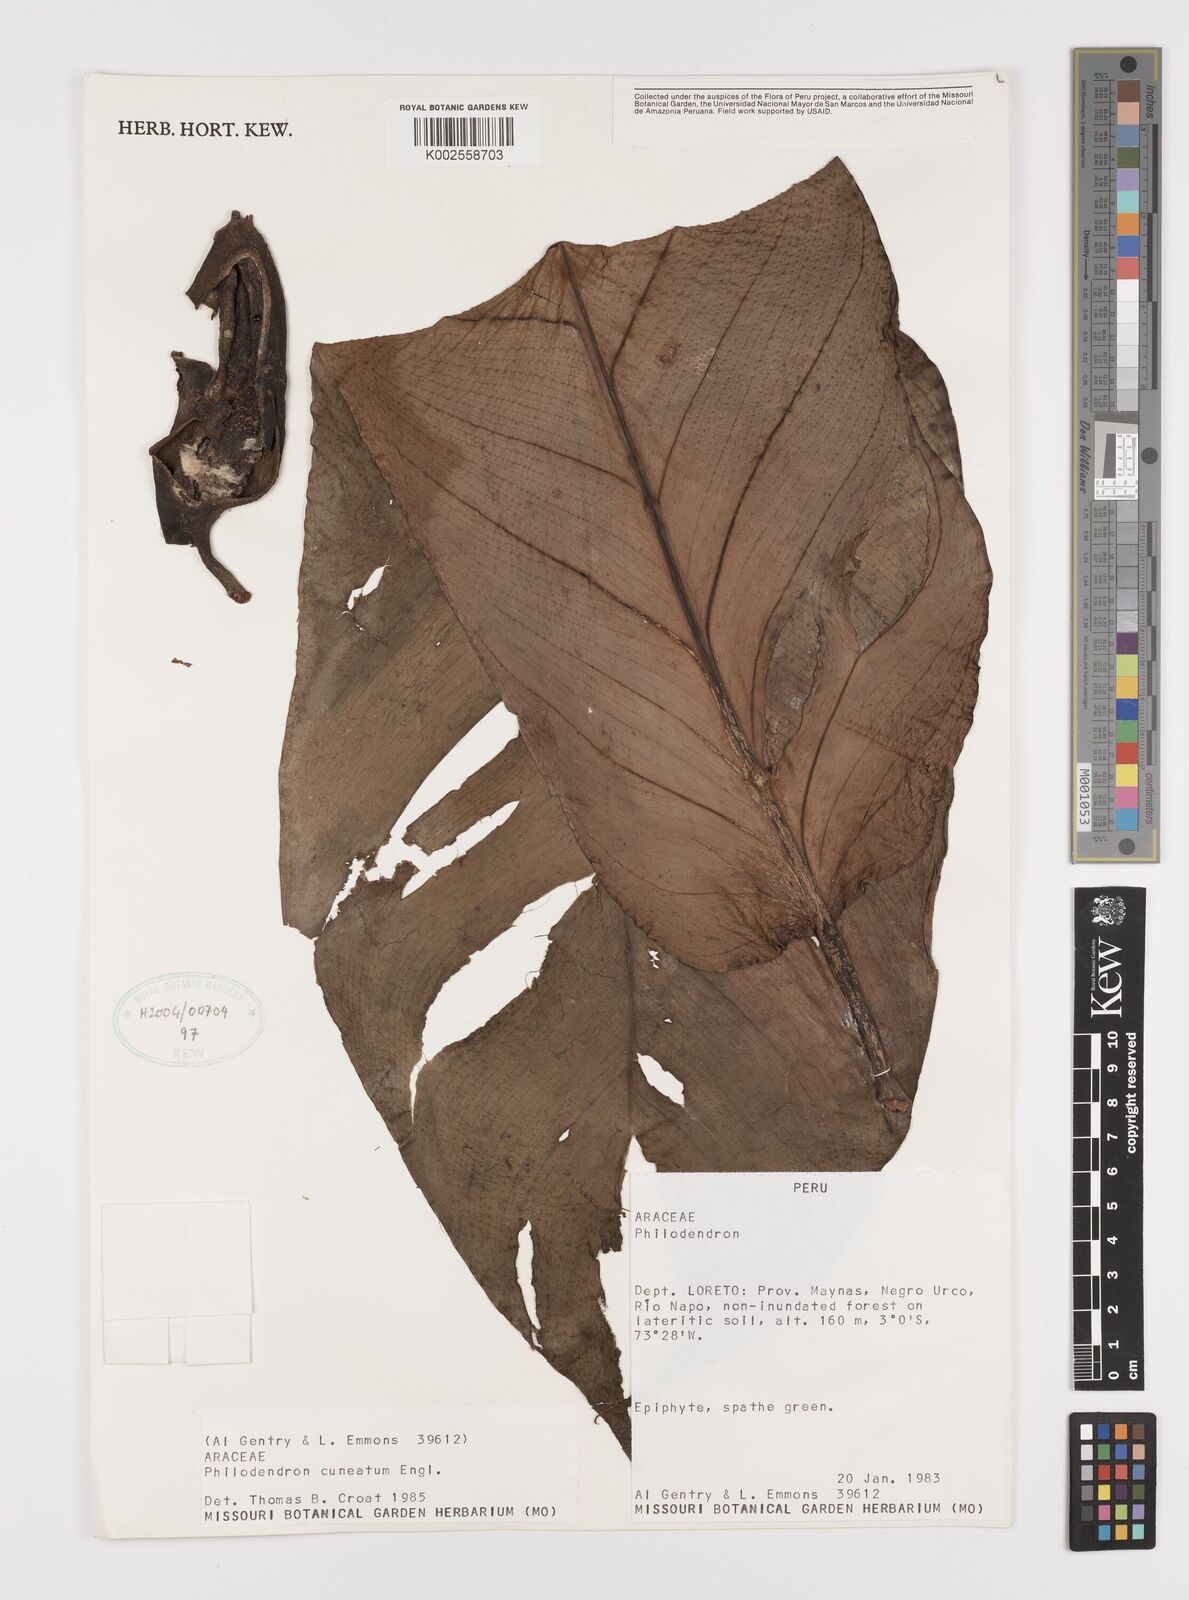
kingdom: Plantae
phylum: Tracheophyta
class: Liliopsida
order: Alismatales
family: Araceae
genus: Philodendron
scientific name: Philodendron cuneatum
